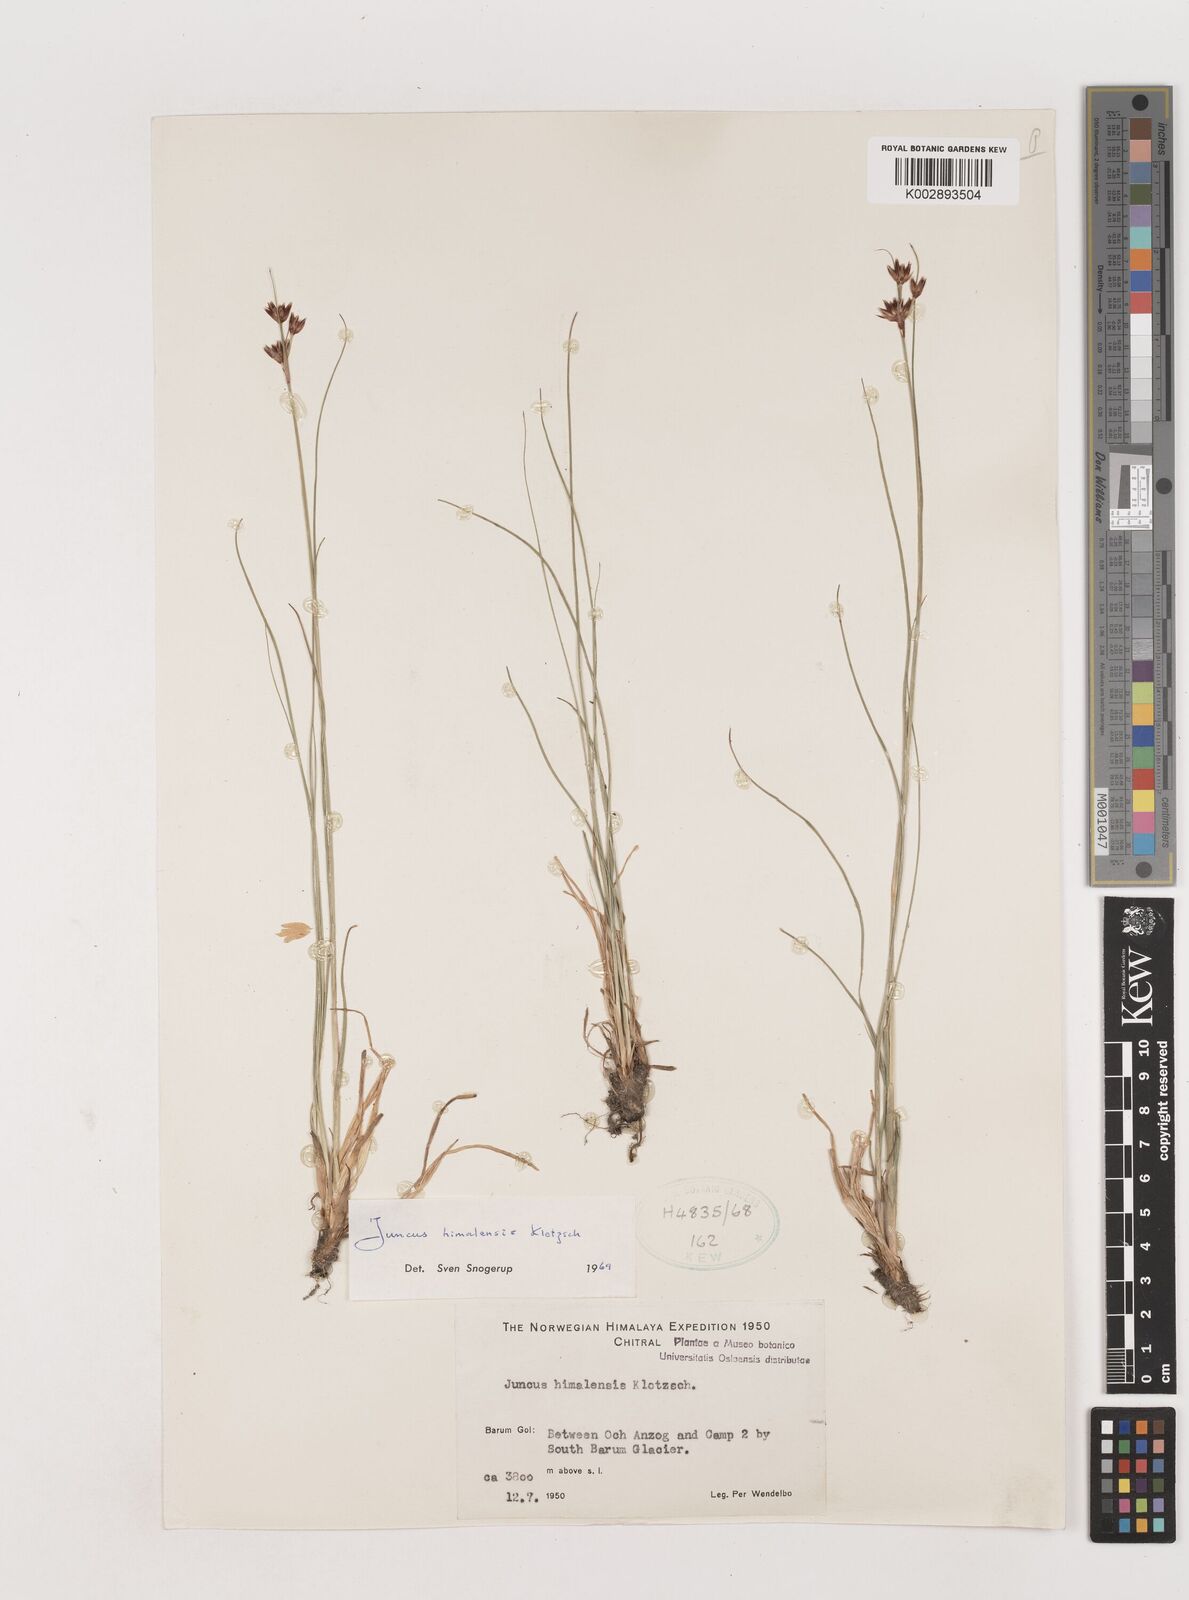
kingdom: Plantae
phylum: Tracheophyta
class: Liliopsida
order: Poales
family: Juncaceae
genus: Juncus
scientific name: Juncus himalensis
